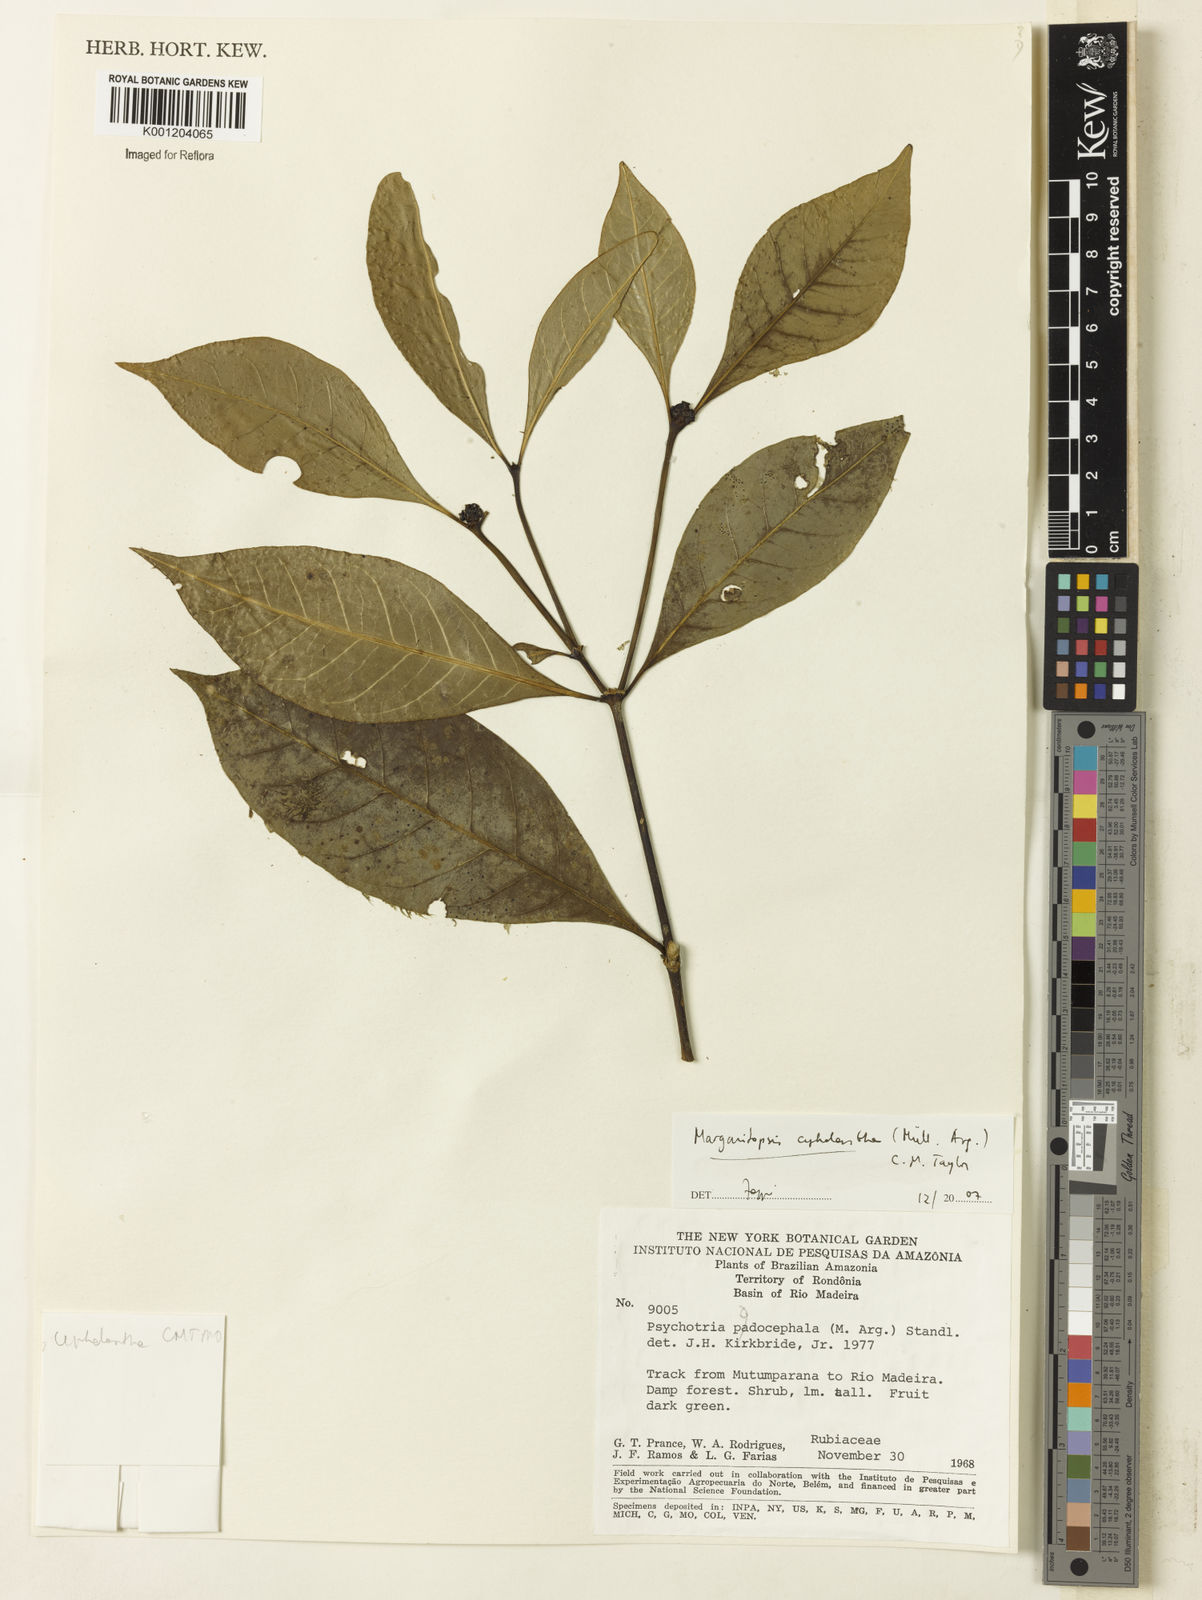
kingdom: Plantae
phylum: Tracheophyta
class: Magnoliopsida
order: Gentianales
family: Rubiaceae
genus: Eumachia
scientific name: Eumachia
